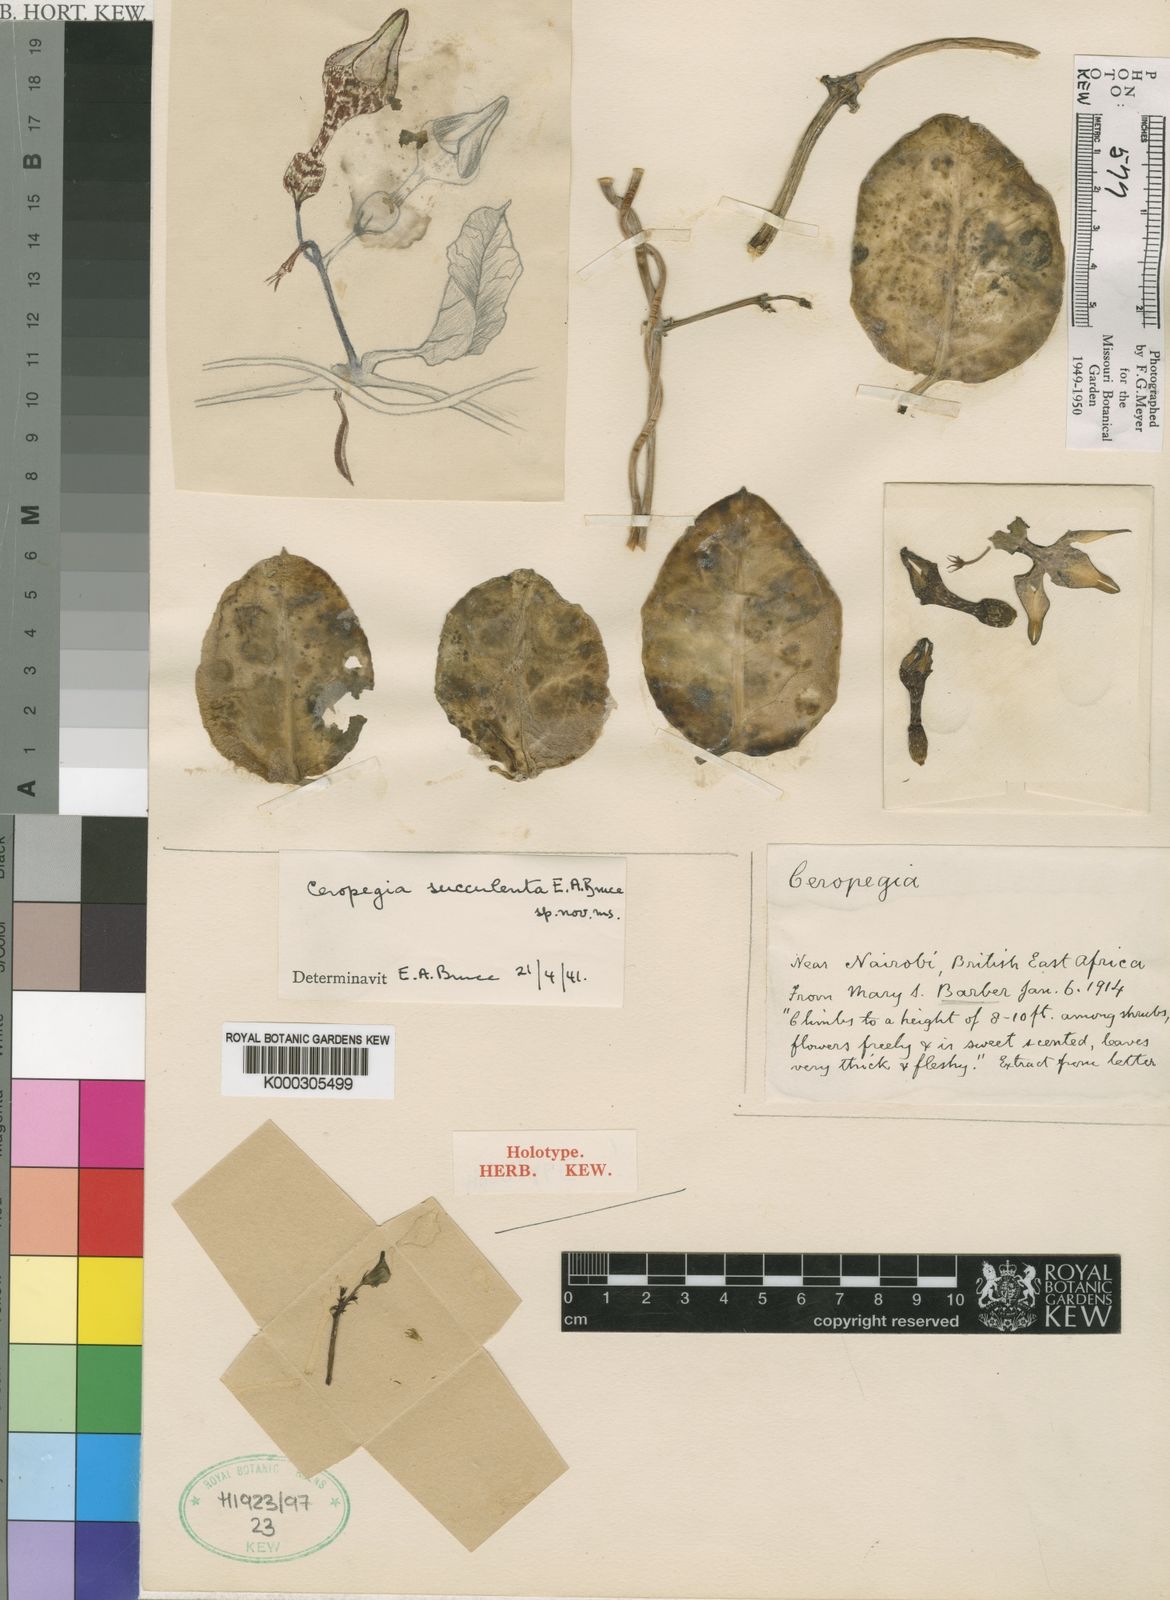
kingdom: Plantae
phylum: Tracheophyta
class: Magnoliopsida
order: Gentianales
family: Apocynaceae
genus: Ceropegia
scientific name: Ceropegia albisepta
